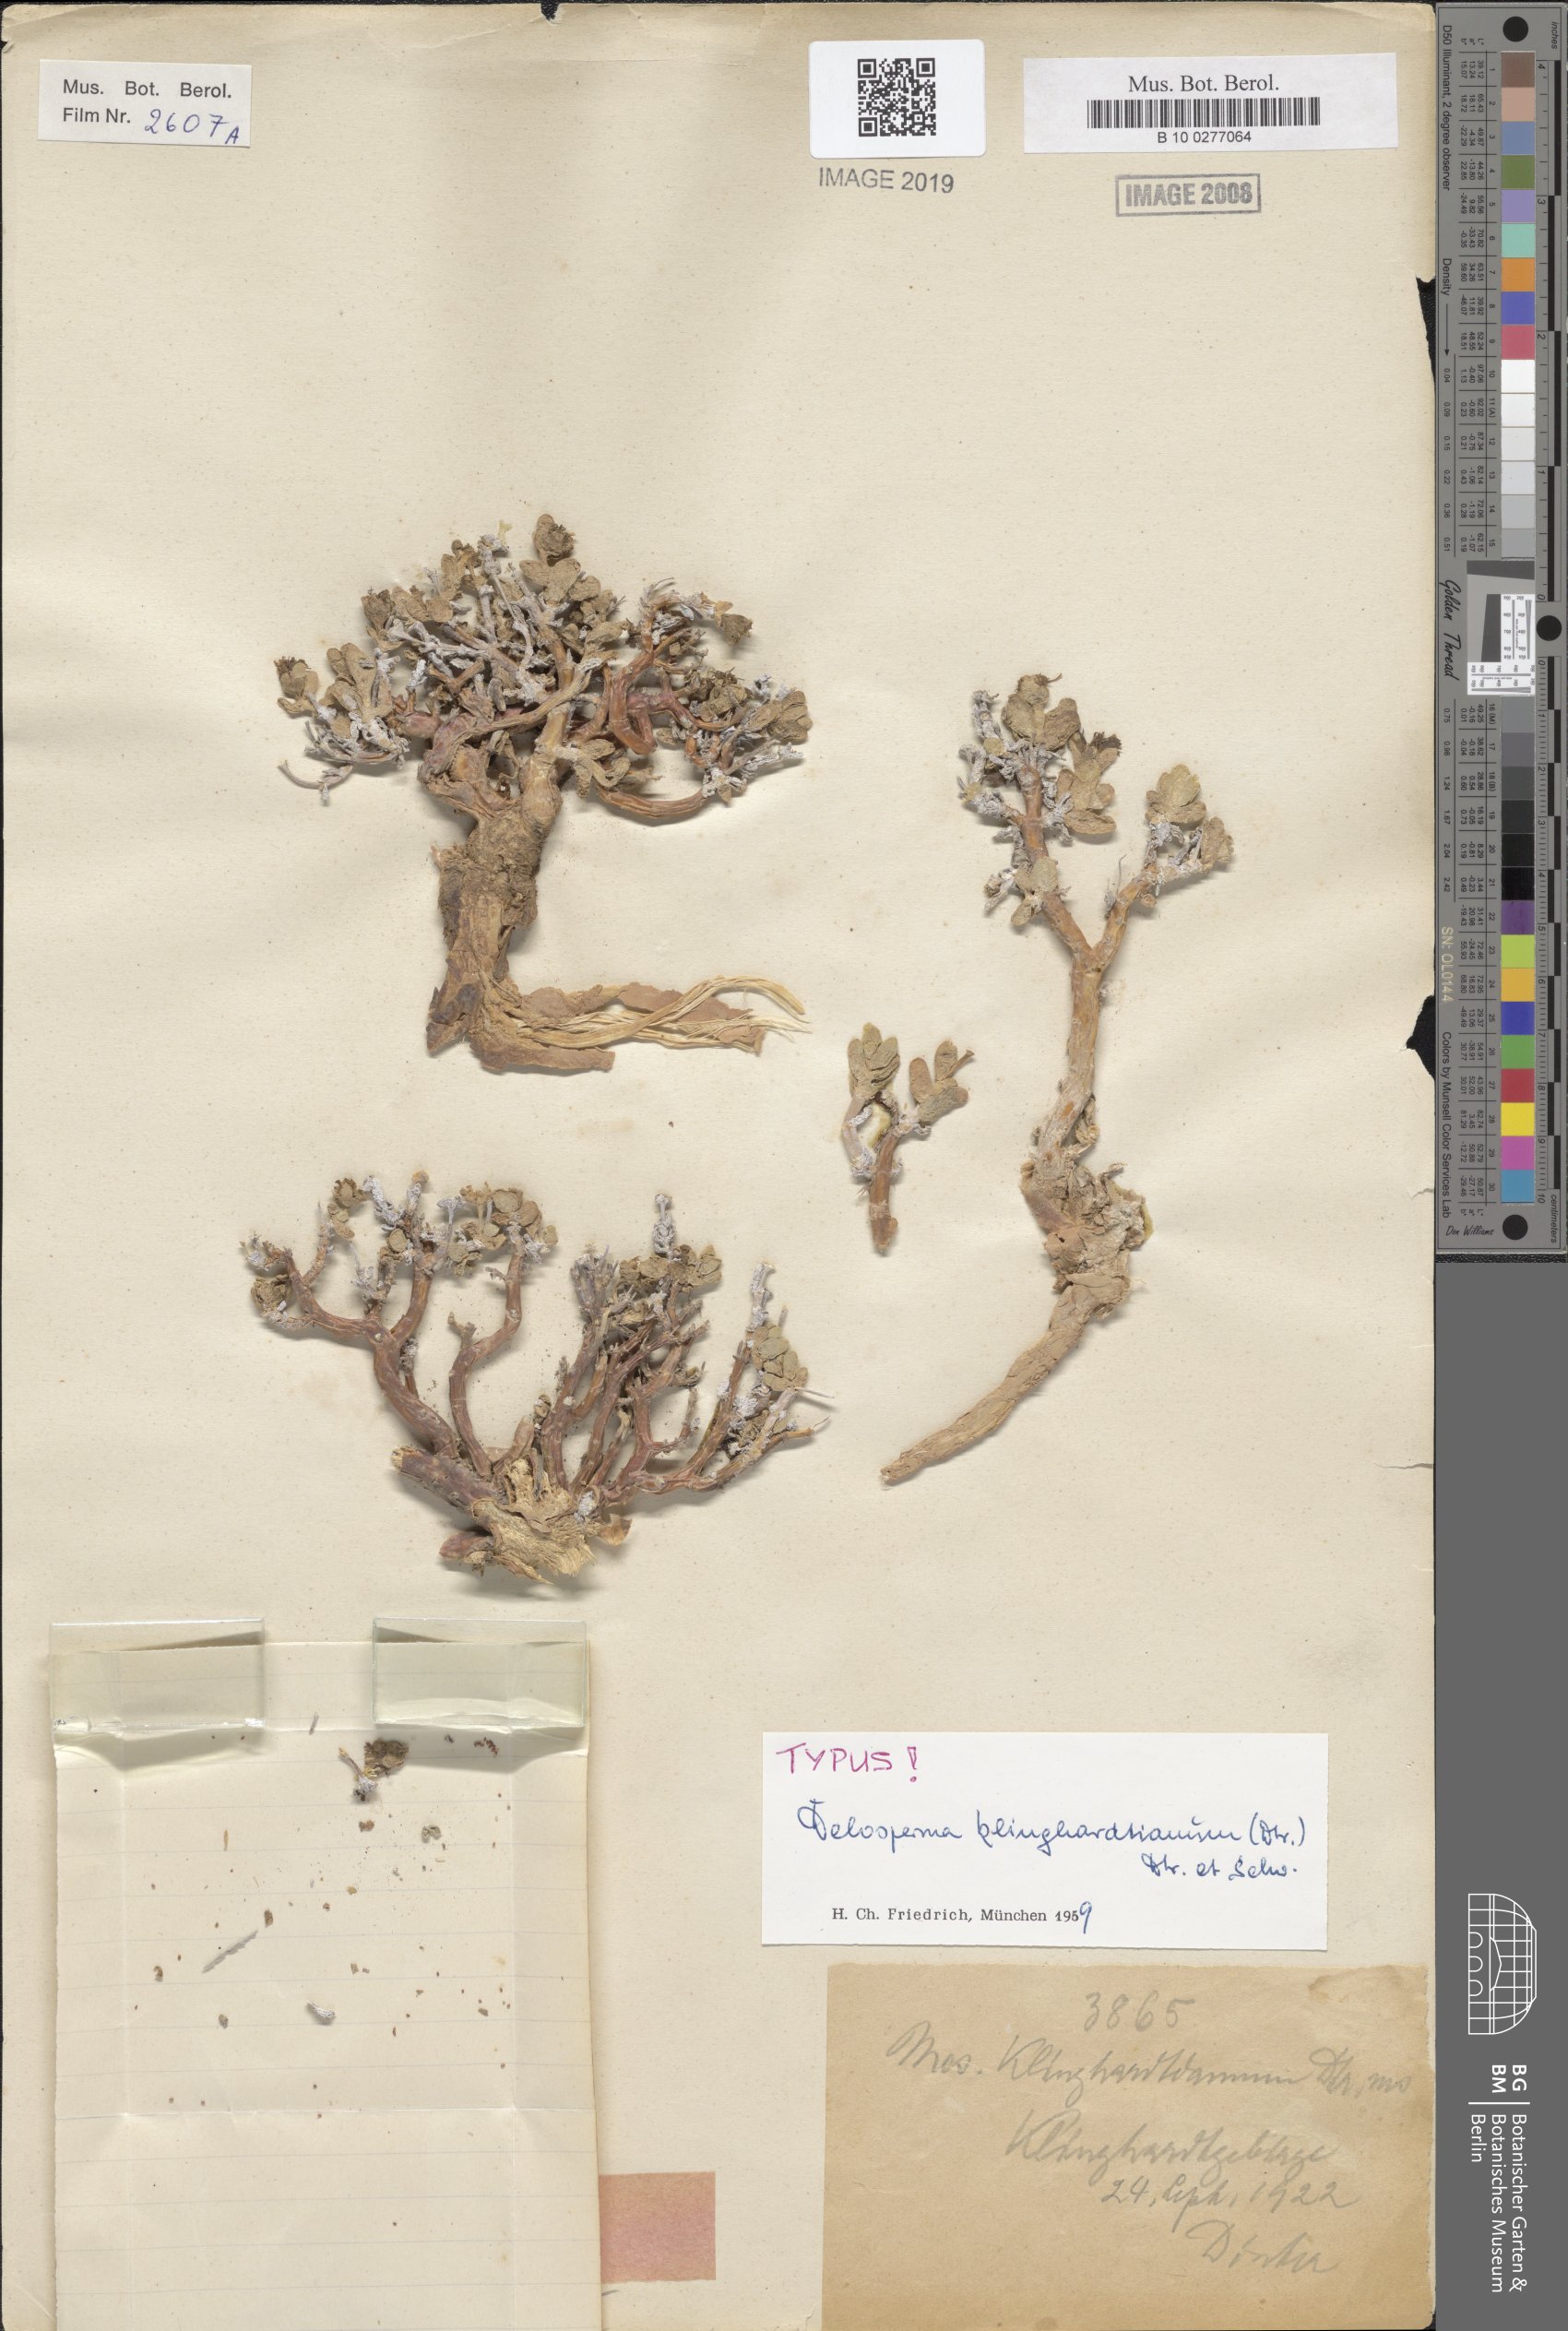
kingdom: Plantae
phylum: Tracheophyta
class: Magnoliopsida
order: Caryophyllales
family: Aizoaceae
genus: Delosperma
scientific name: Delosperma klinghardtianum
